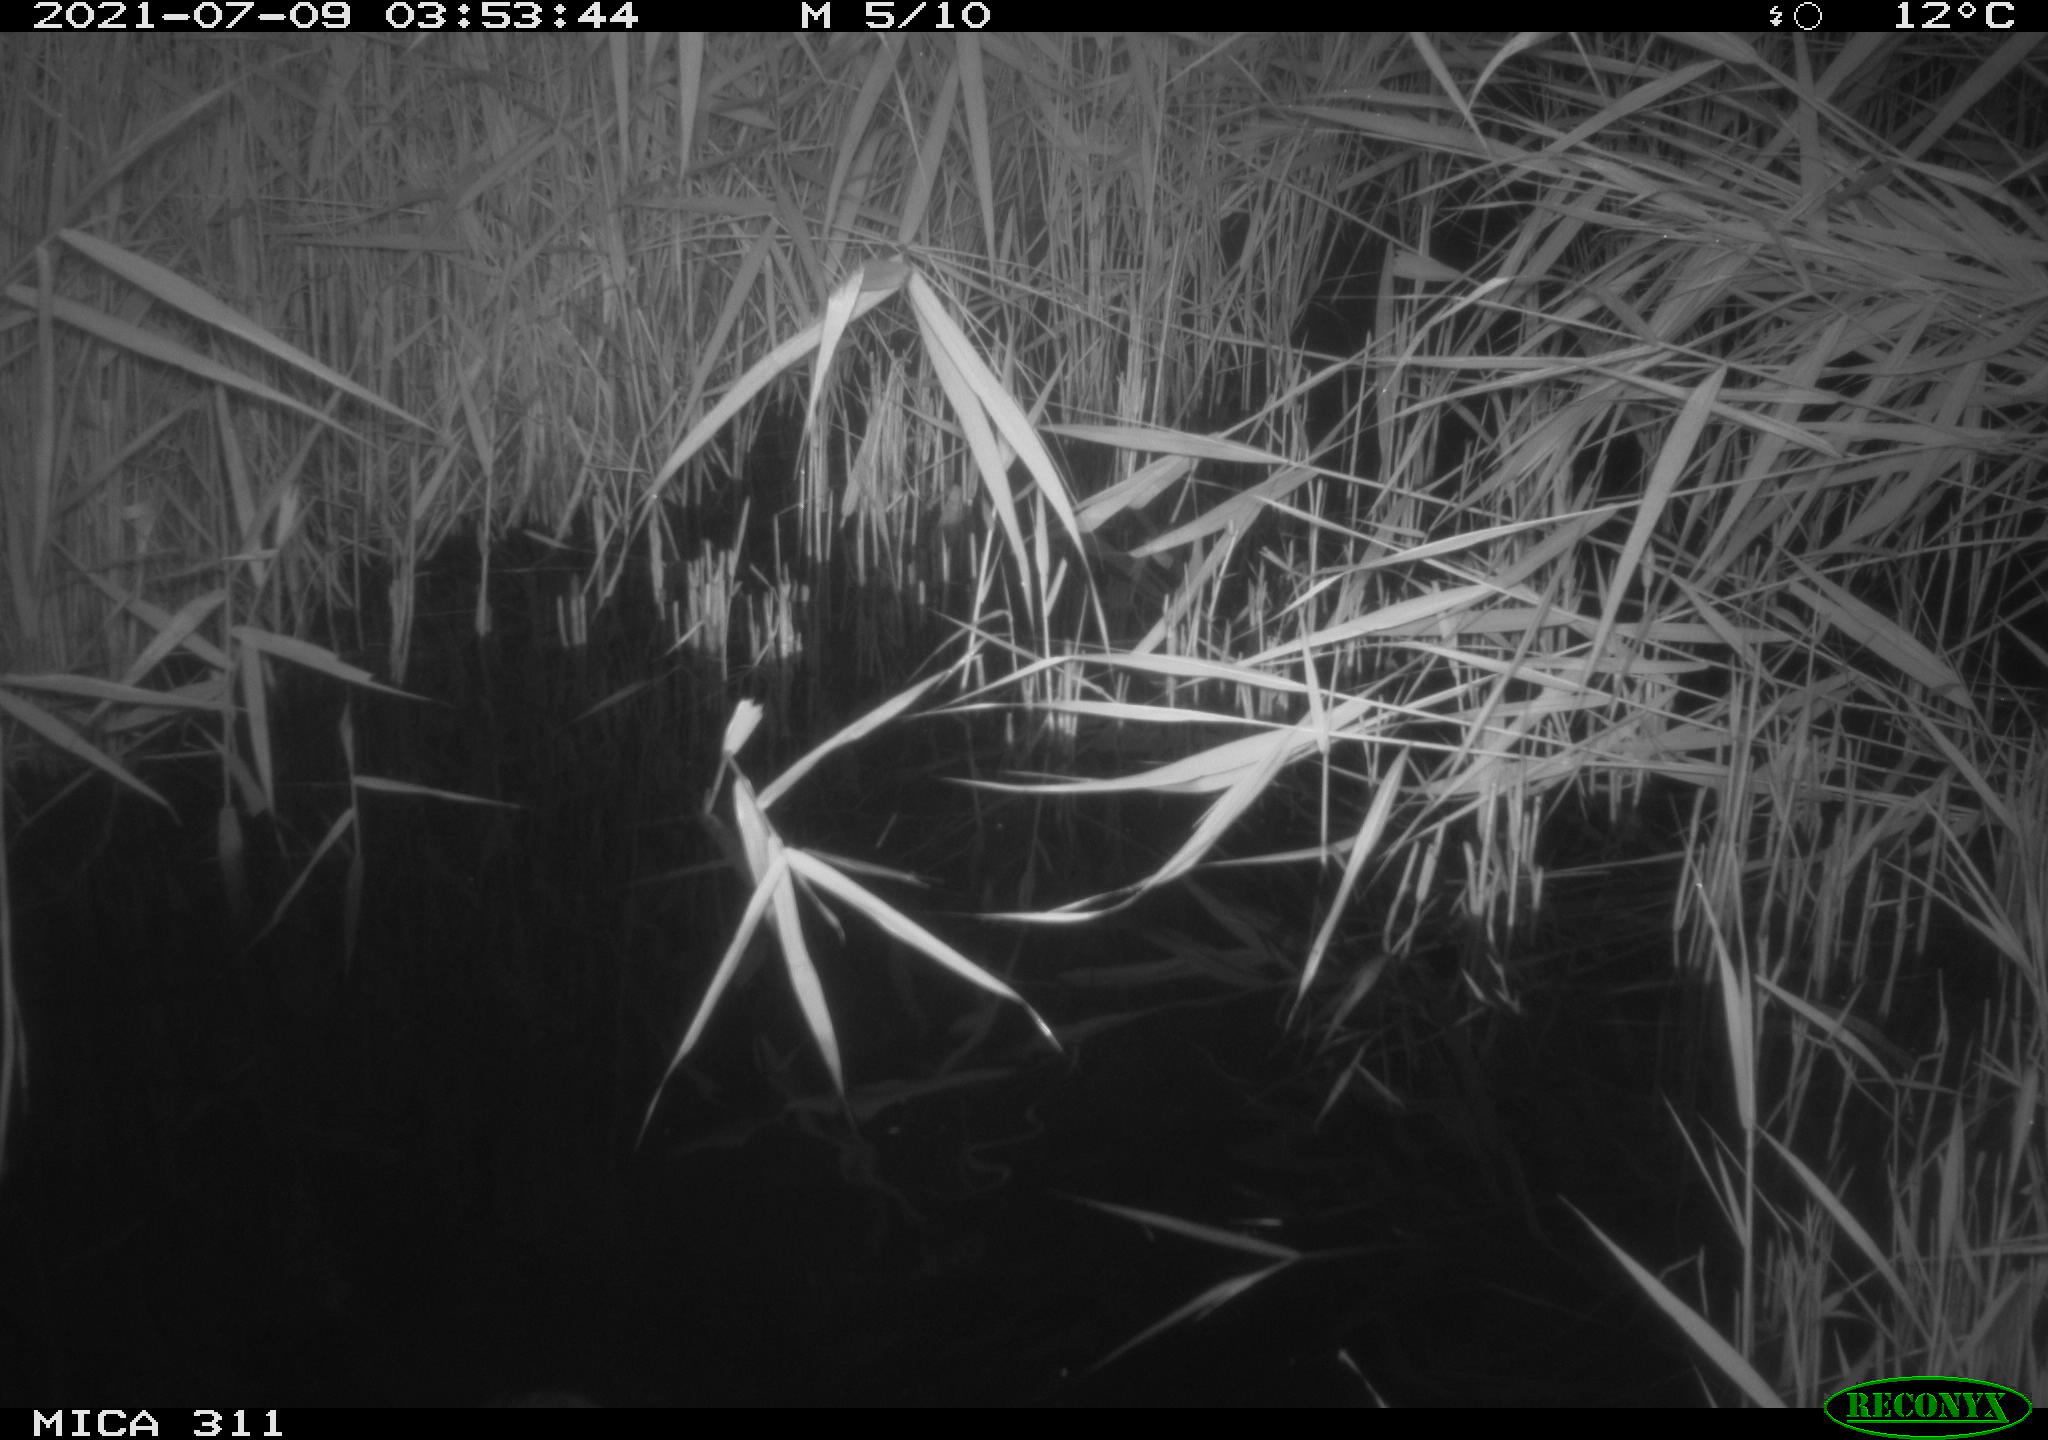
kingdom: Animalia
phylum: Chordata
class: Aves
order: Gruiformes
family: Rallidae
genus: Fulica
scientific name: Fulica atra
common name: Eurasian coot
